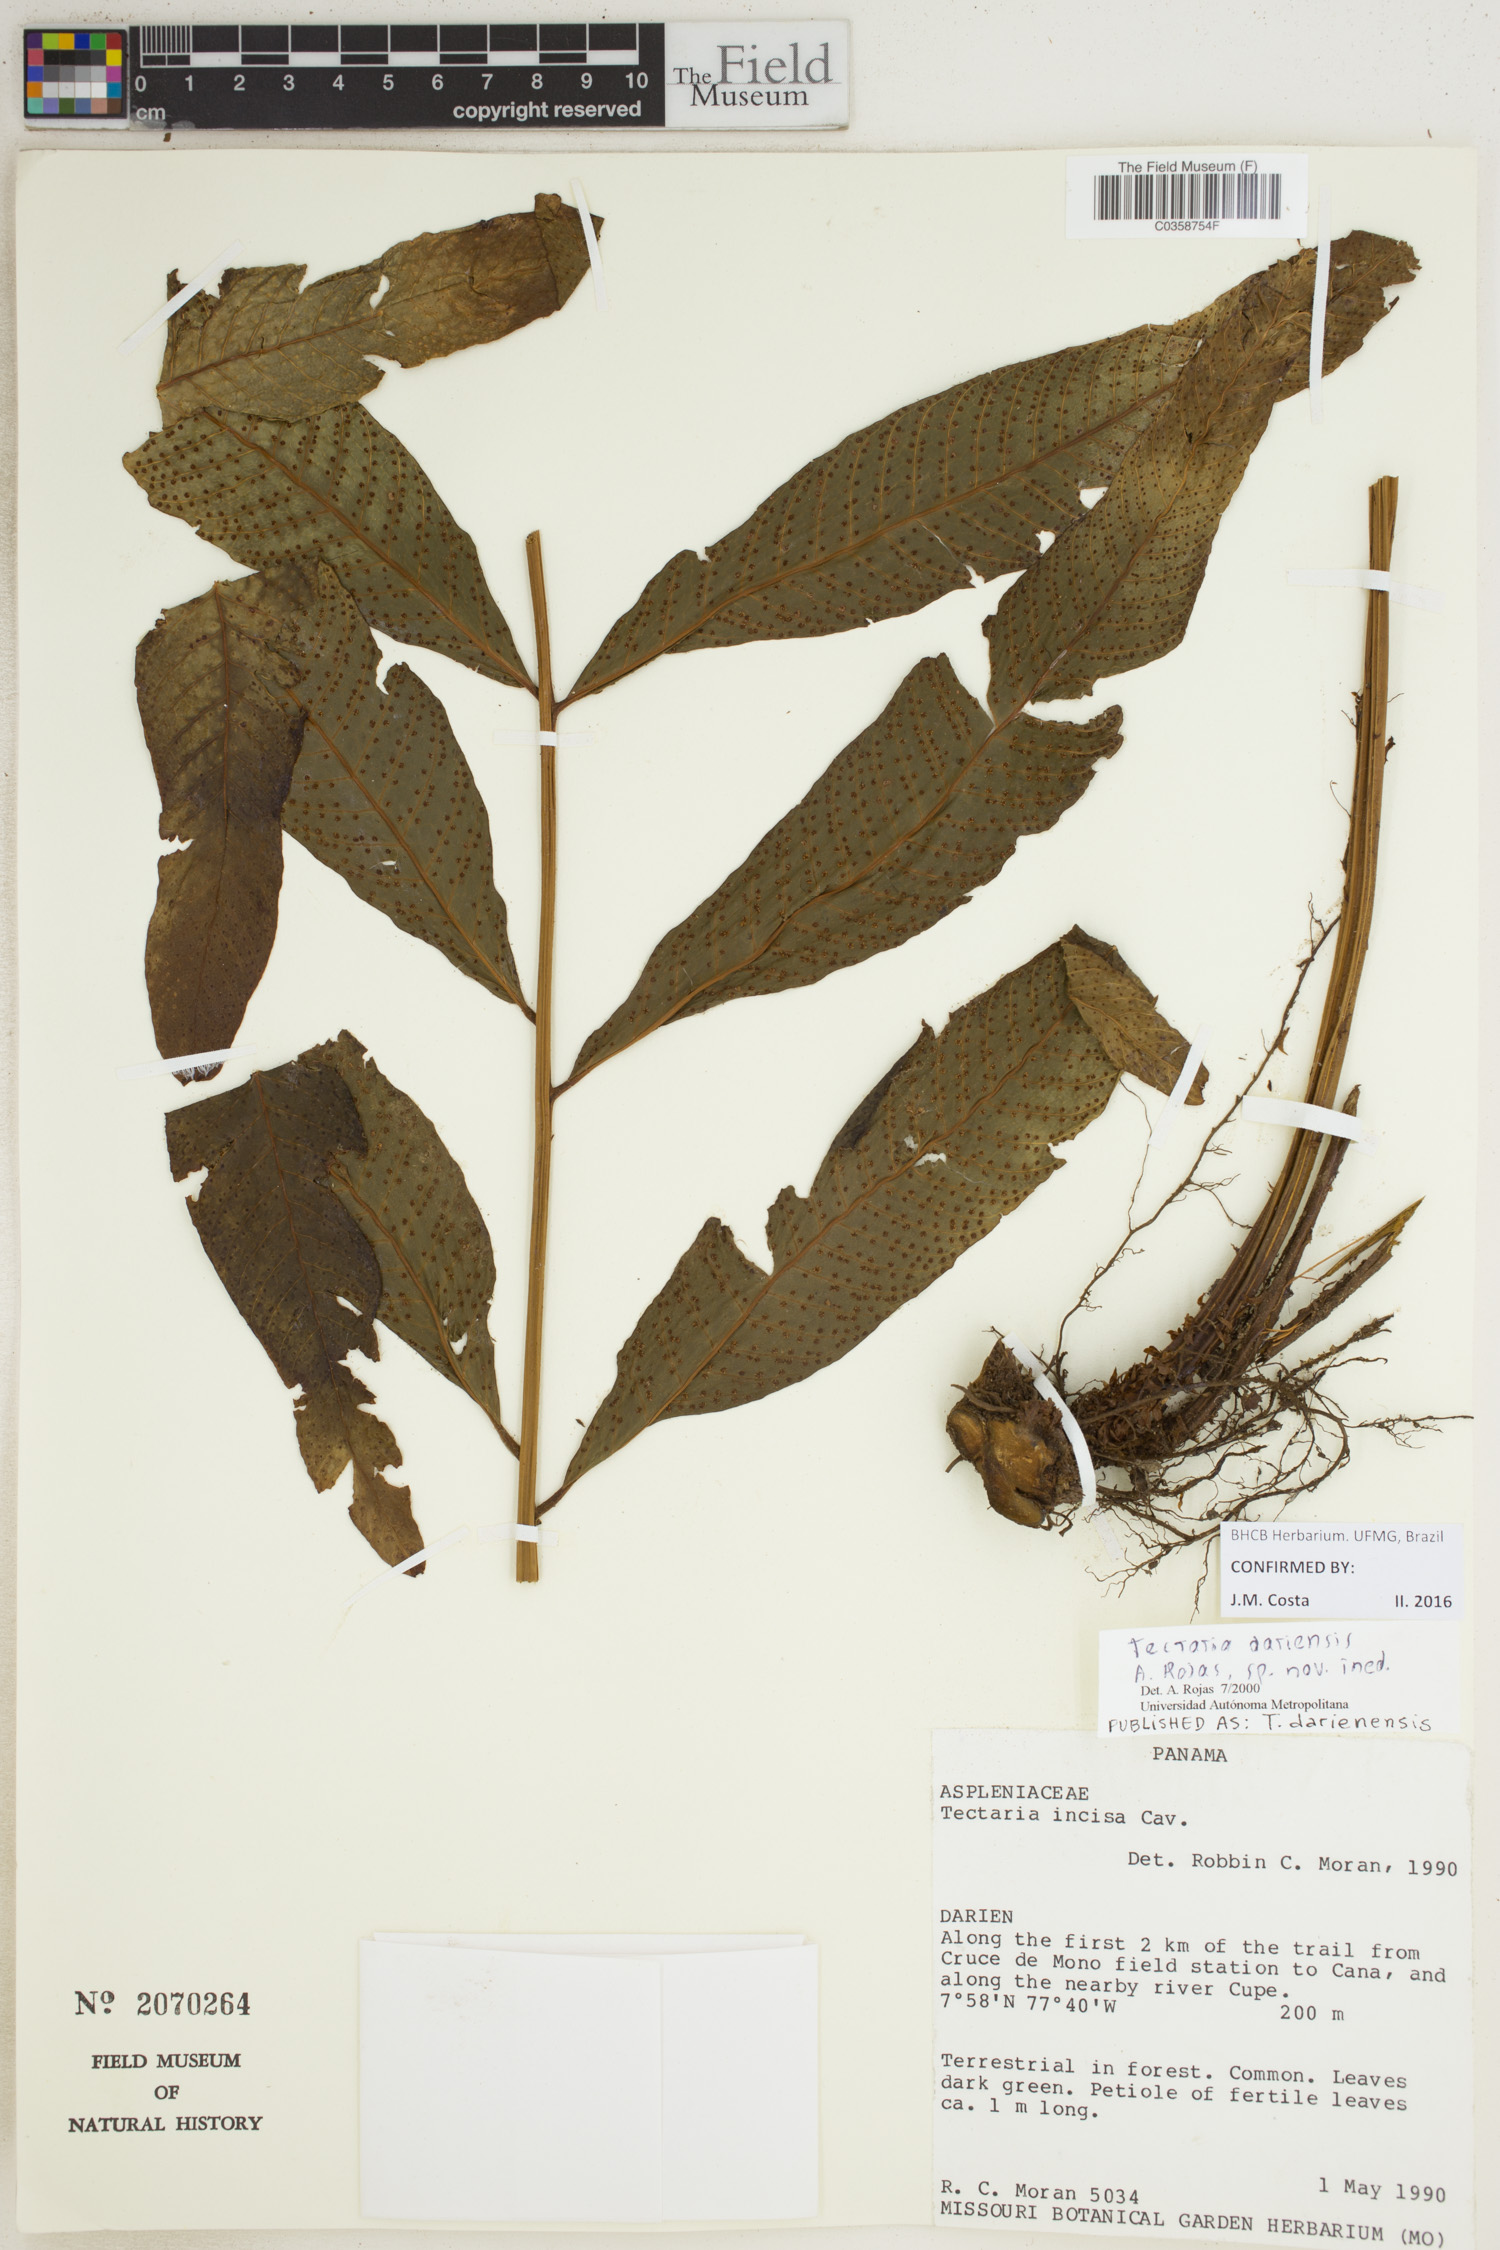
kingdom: Plantae
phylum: Tracheophyta
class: Polypodiopsida
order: Polypodiales
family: Tectariaceae
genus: Tectaria
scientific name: Tectaria darienensis
